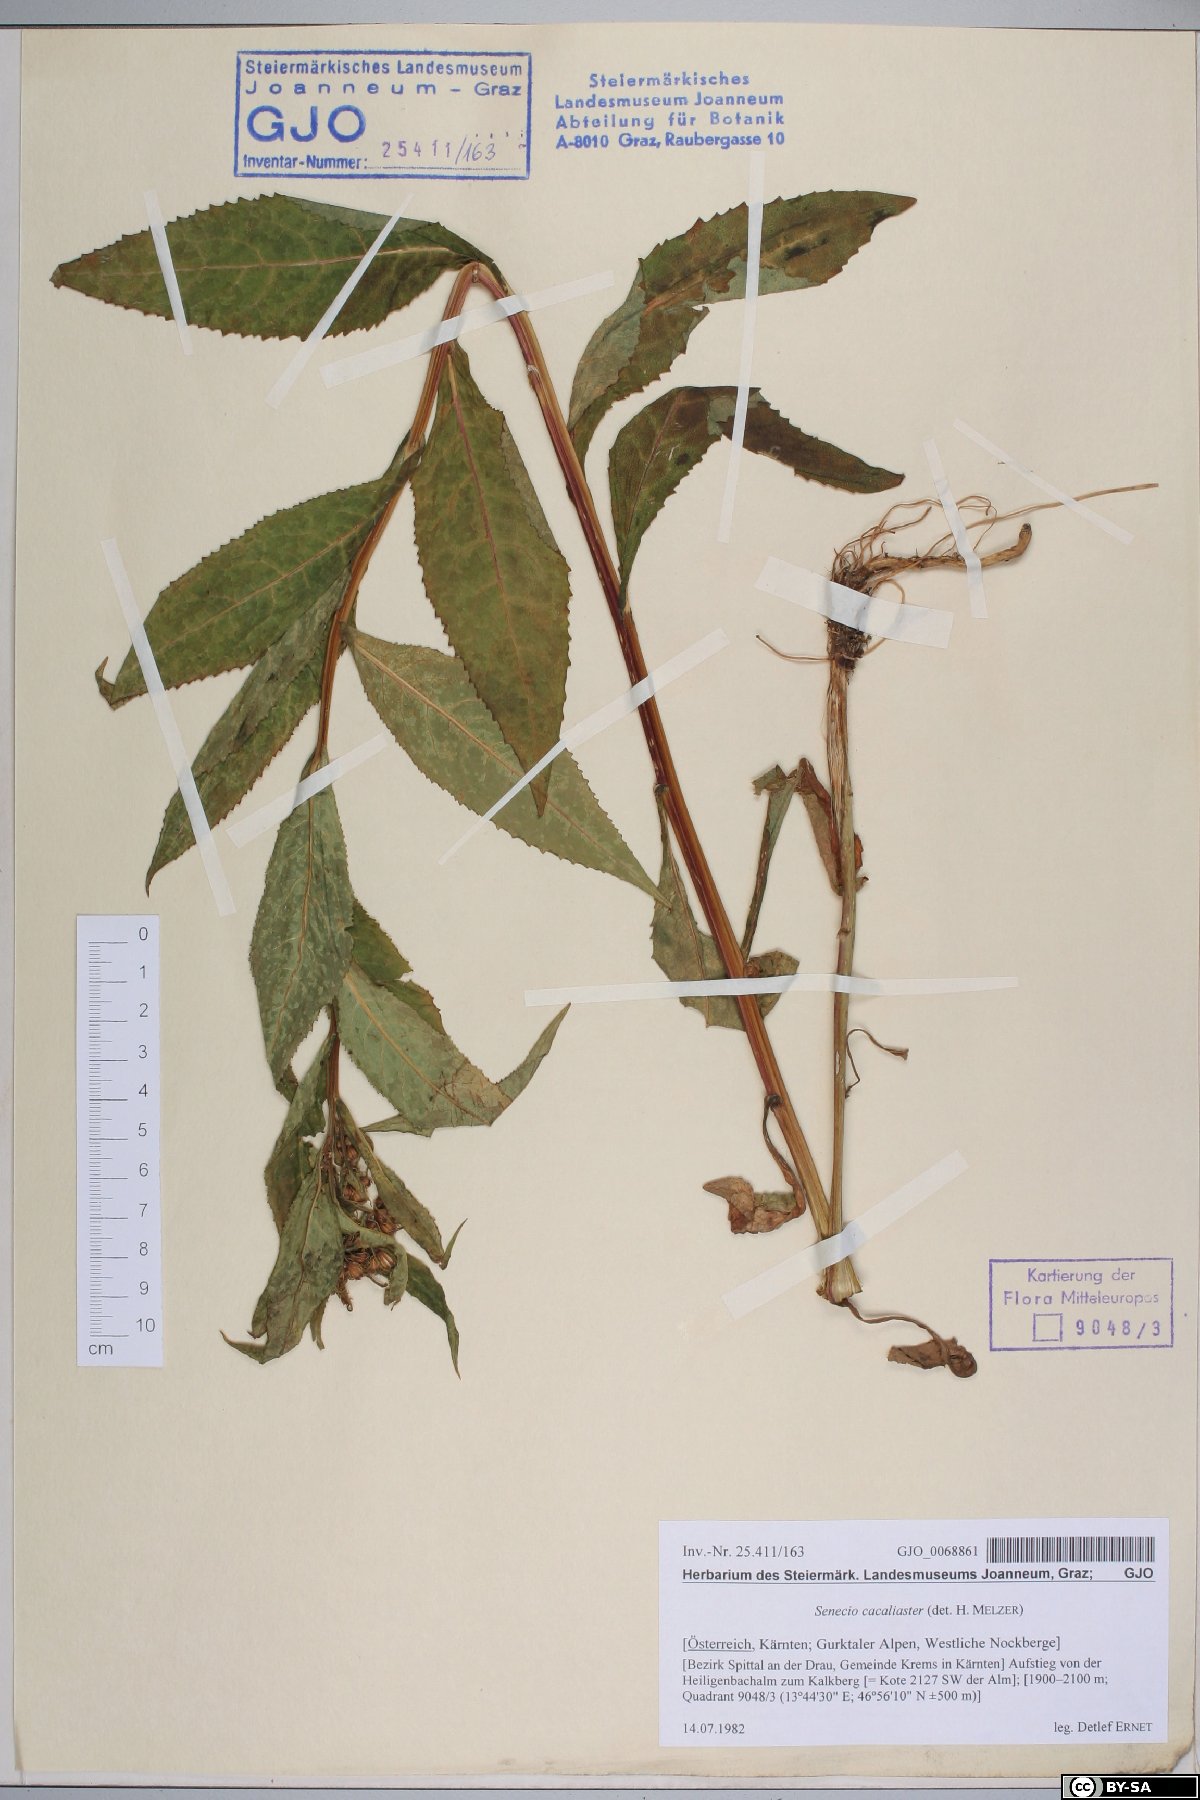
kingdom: Plantae
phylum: Tracheophyta
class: Magnoliopsida
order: Asterales
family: Asteraceae
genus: Senecio
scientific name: Senecio cacaliaster
